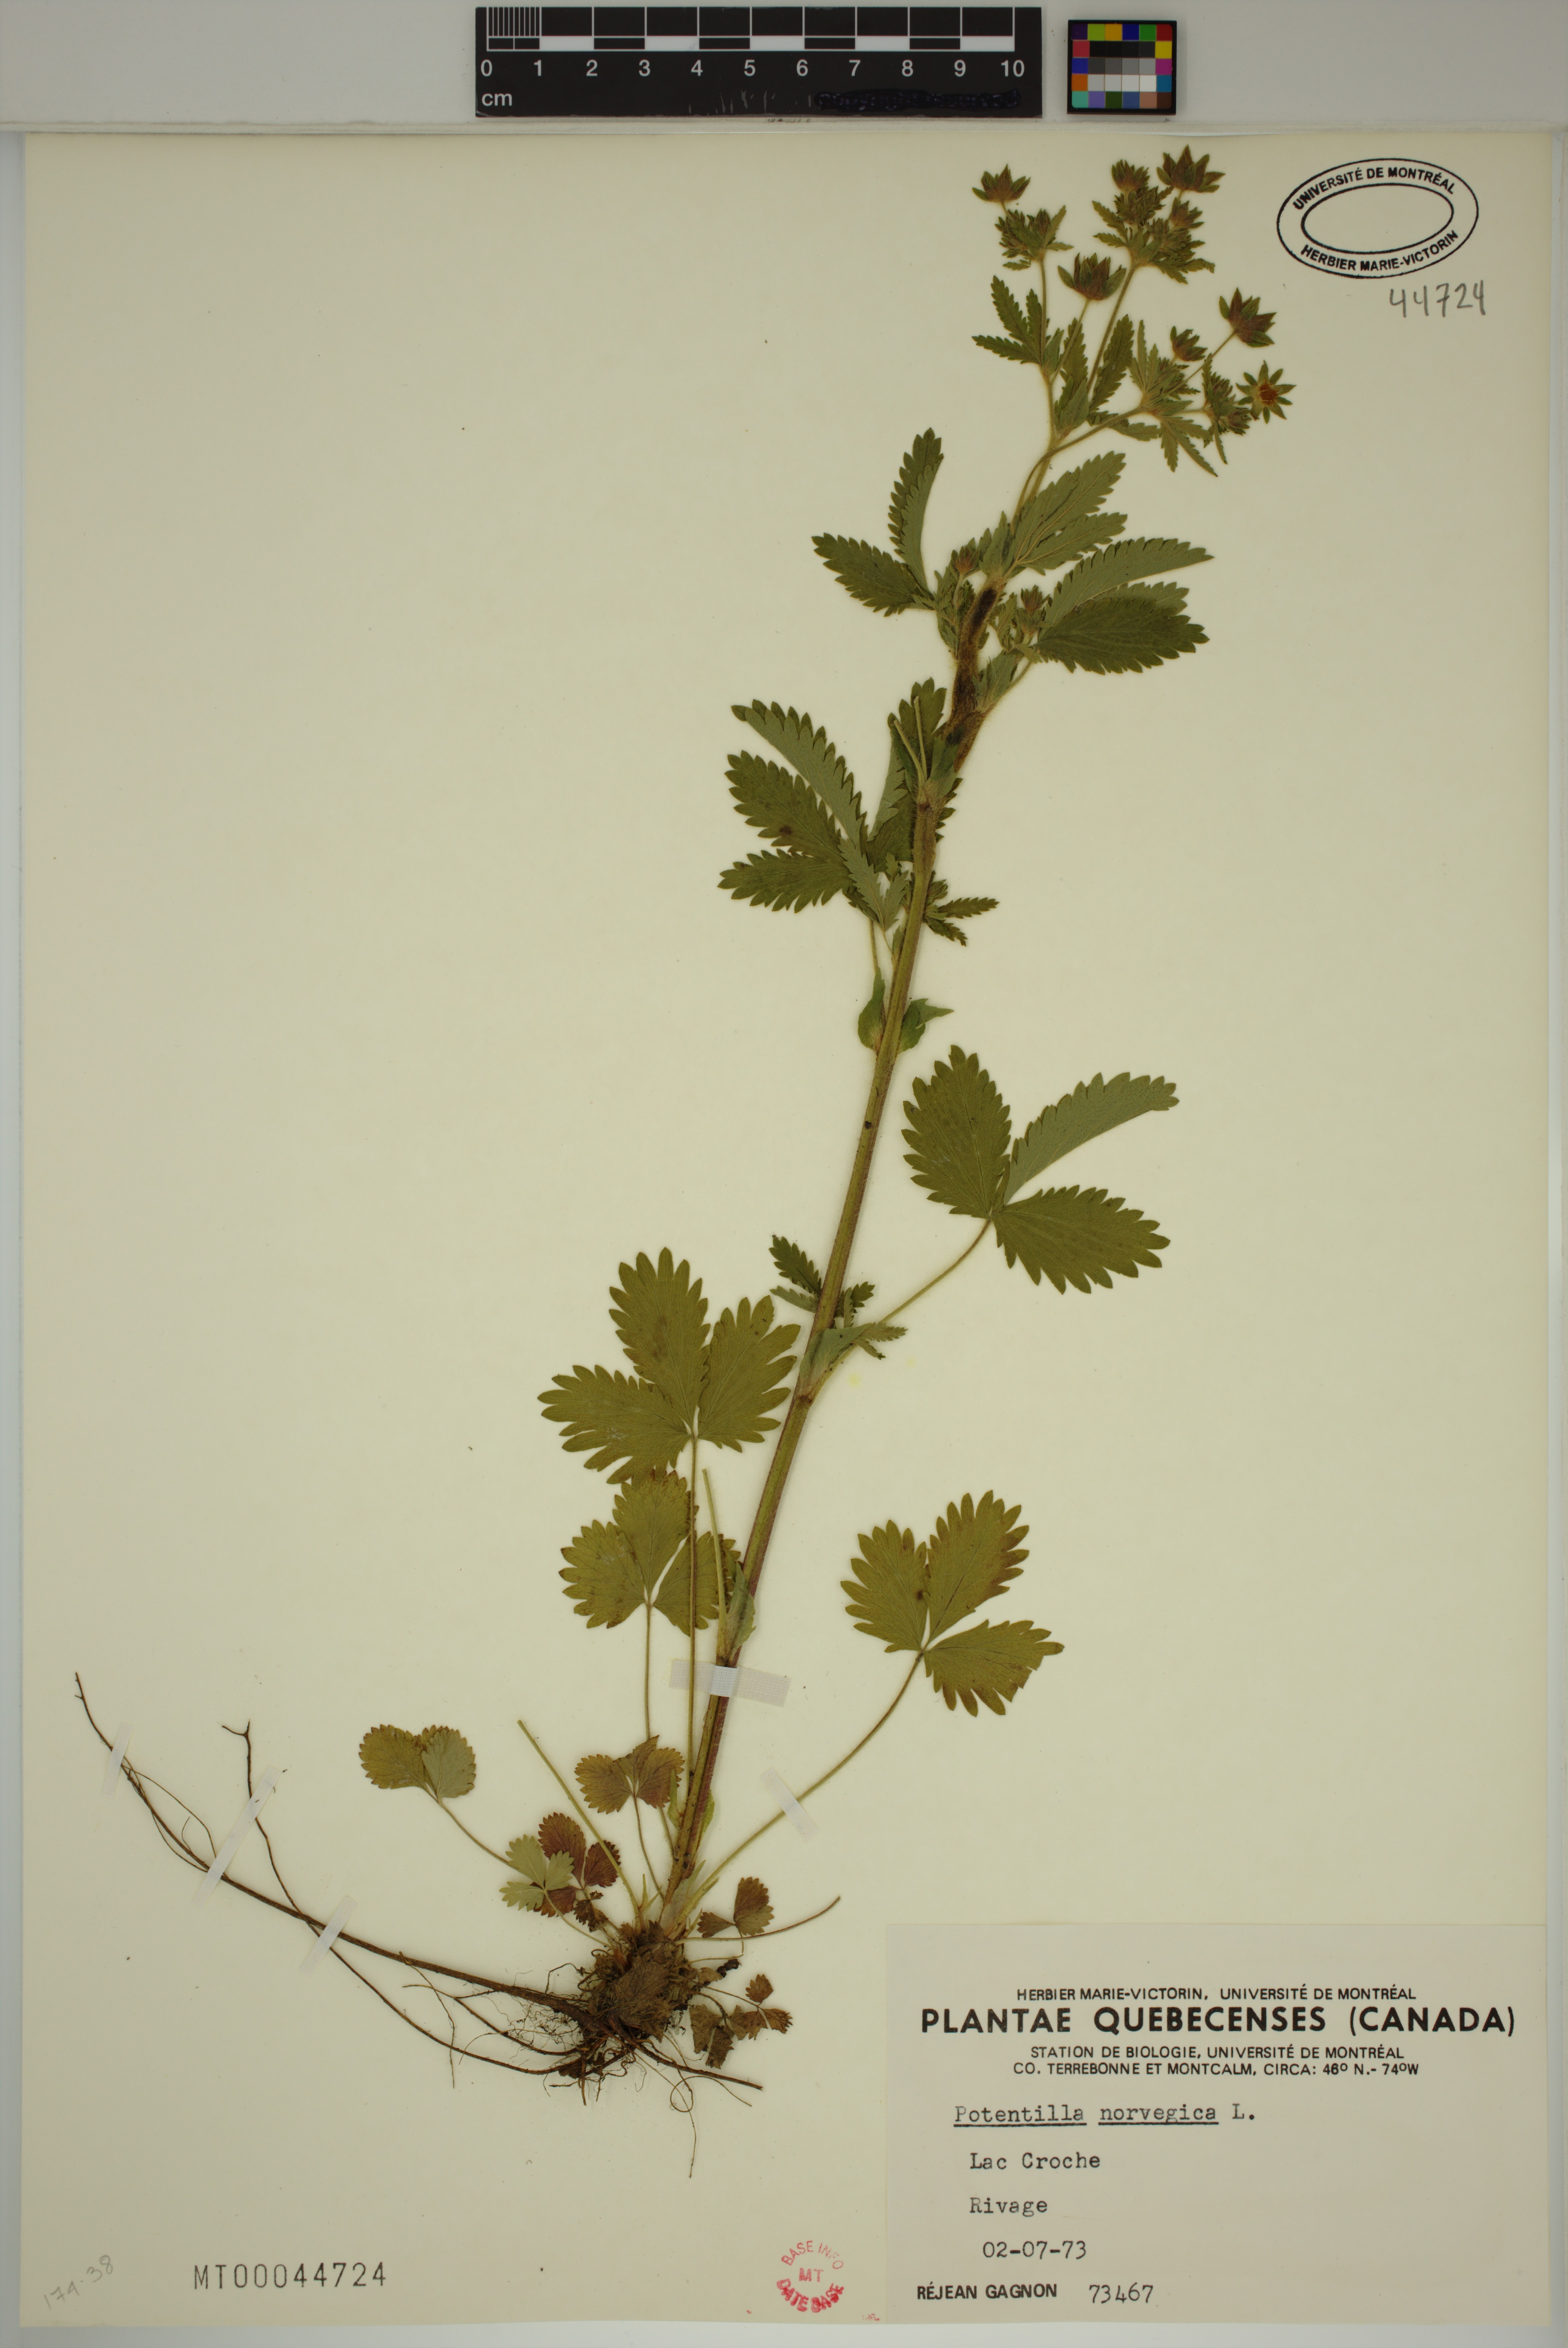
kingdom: Plantae
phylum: Tracheophyta
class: Magnoliopsida
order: Rosales
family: Rosaceae
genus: Potentilla
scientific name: Potentilla norvegica
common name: Ternate-leaved cinquefoil
